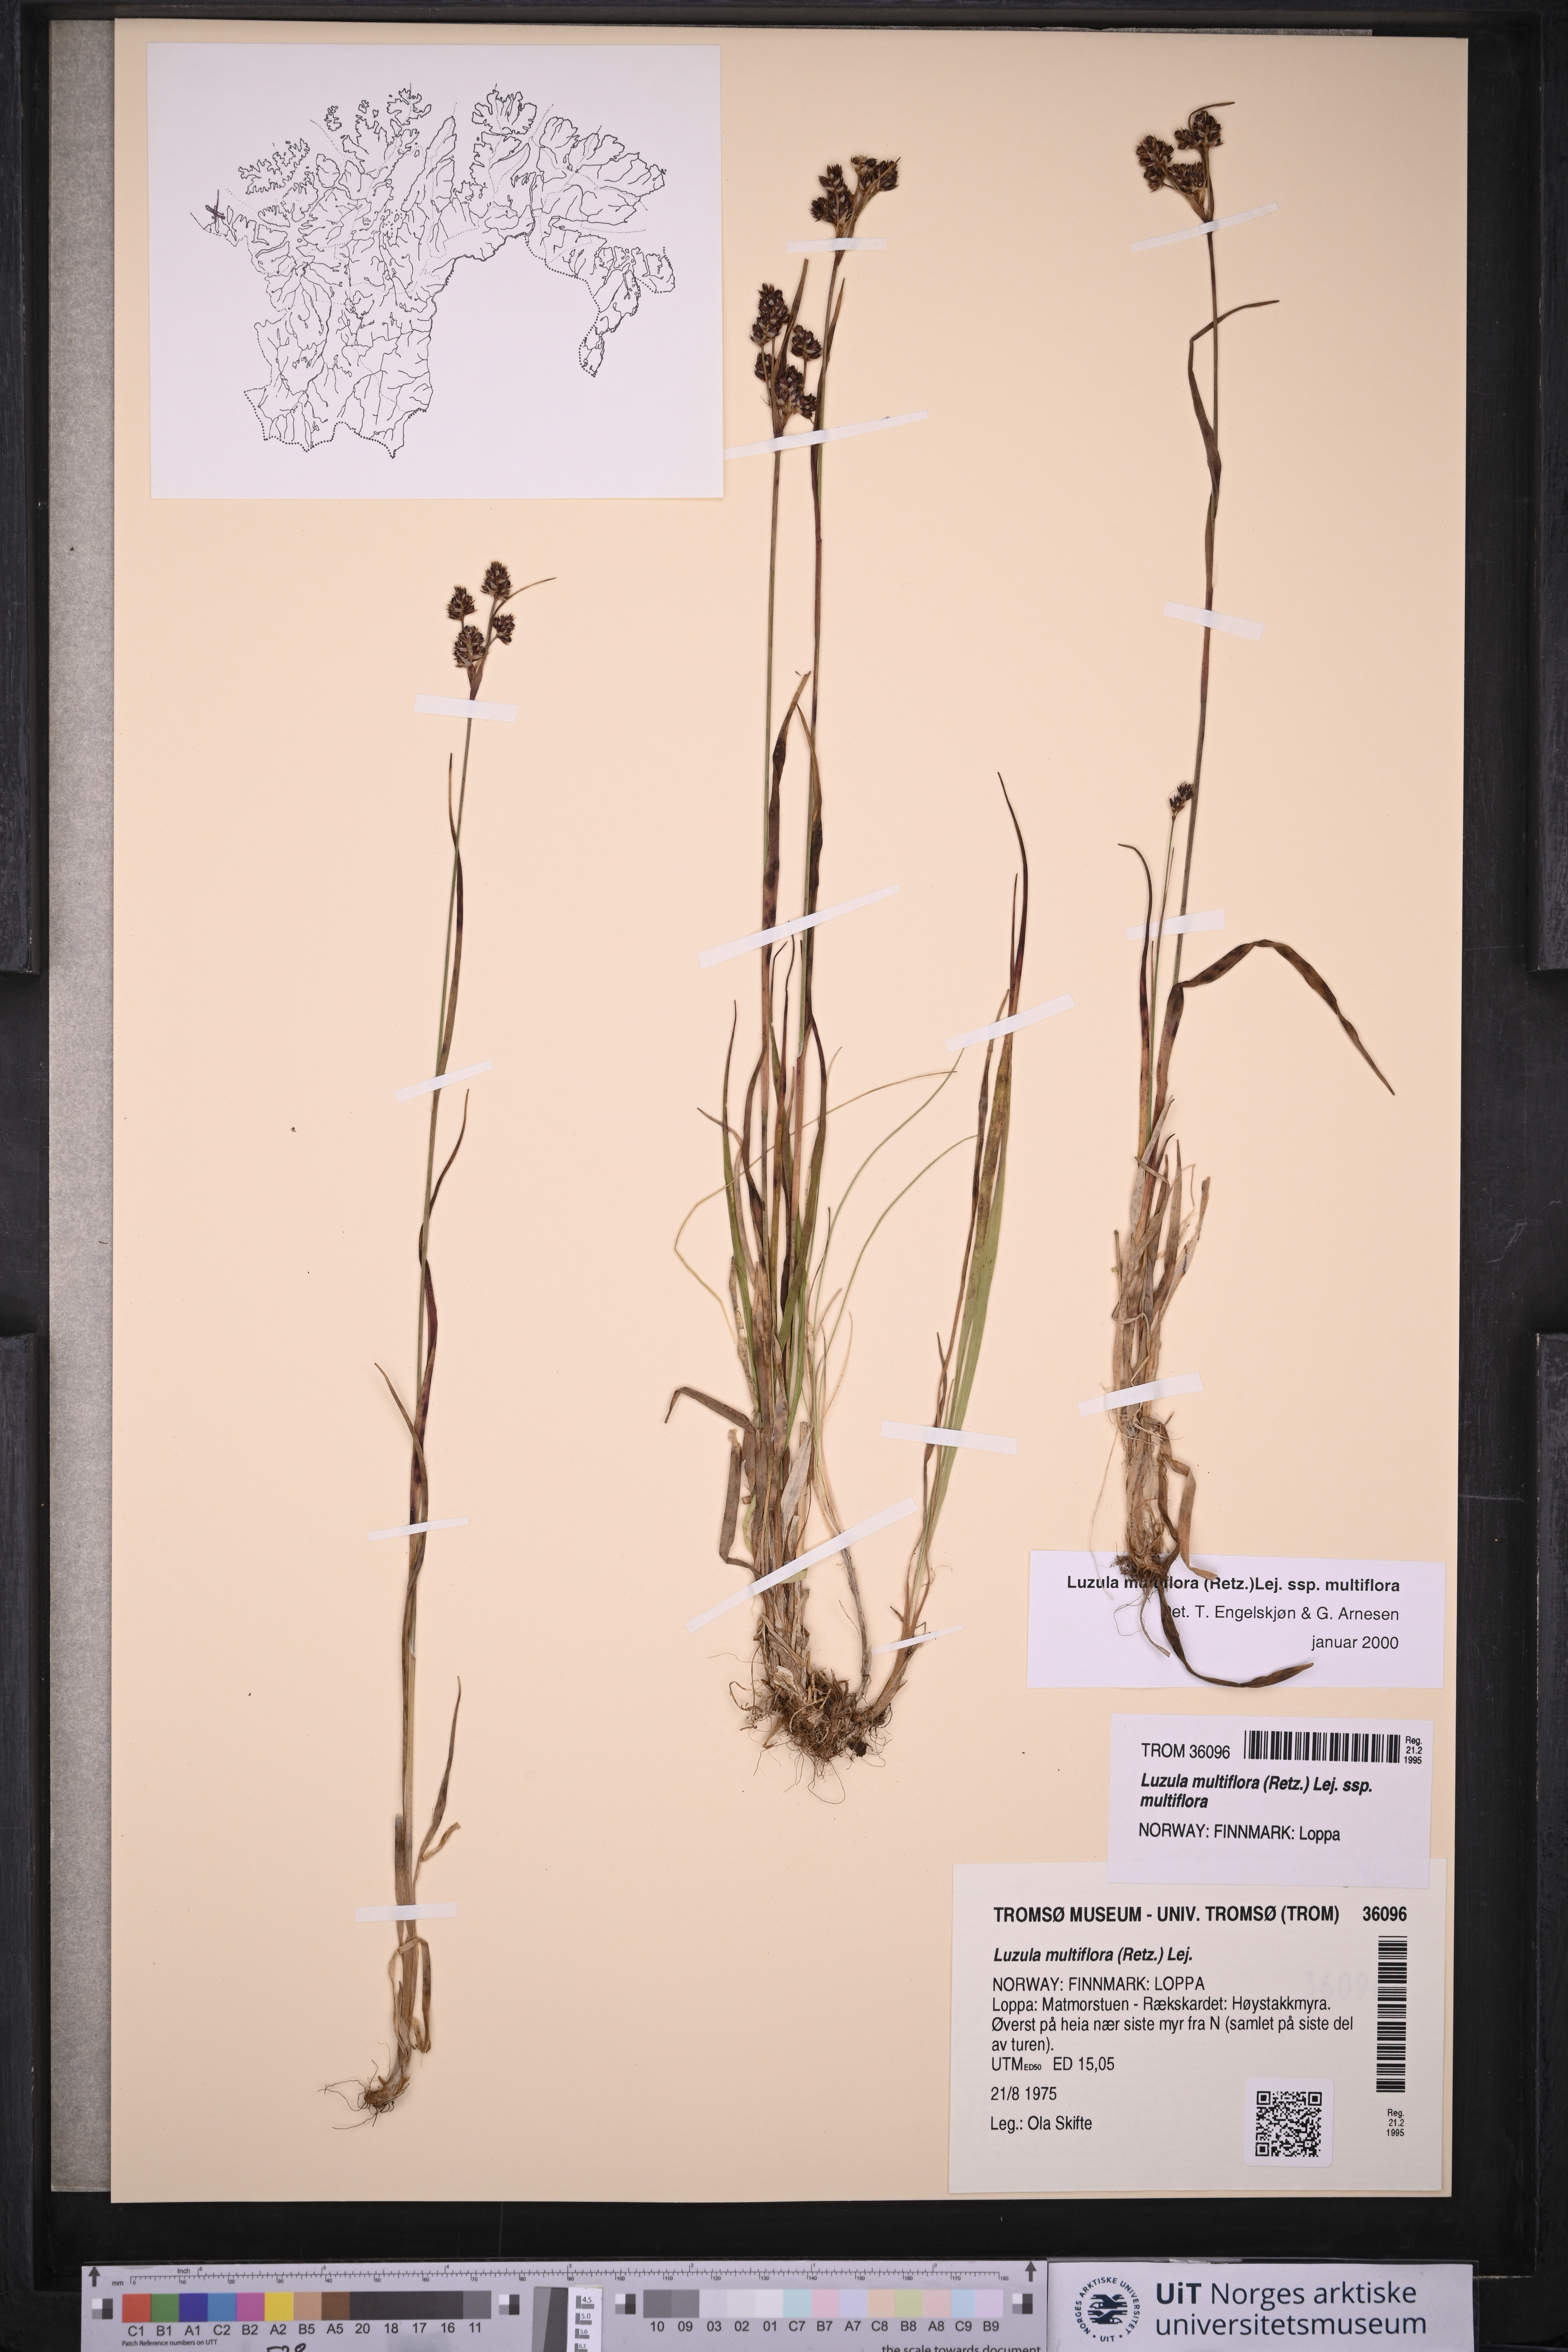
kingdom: Plantae
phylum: Tracheophyta
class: Liliopsida
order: Poales
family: Juncaceae
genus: Luzula
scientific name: Luzula multiflora
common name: Heath wood-rush
